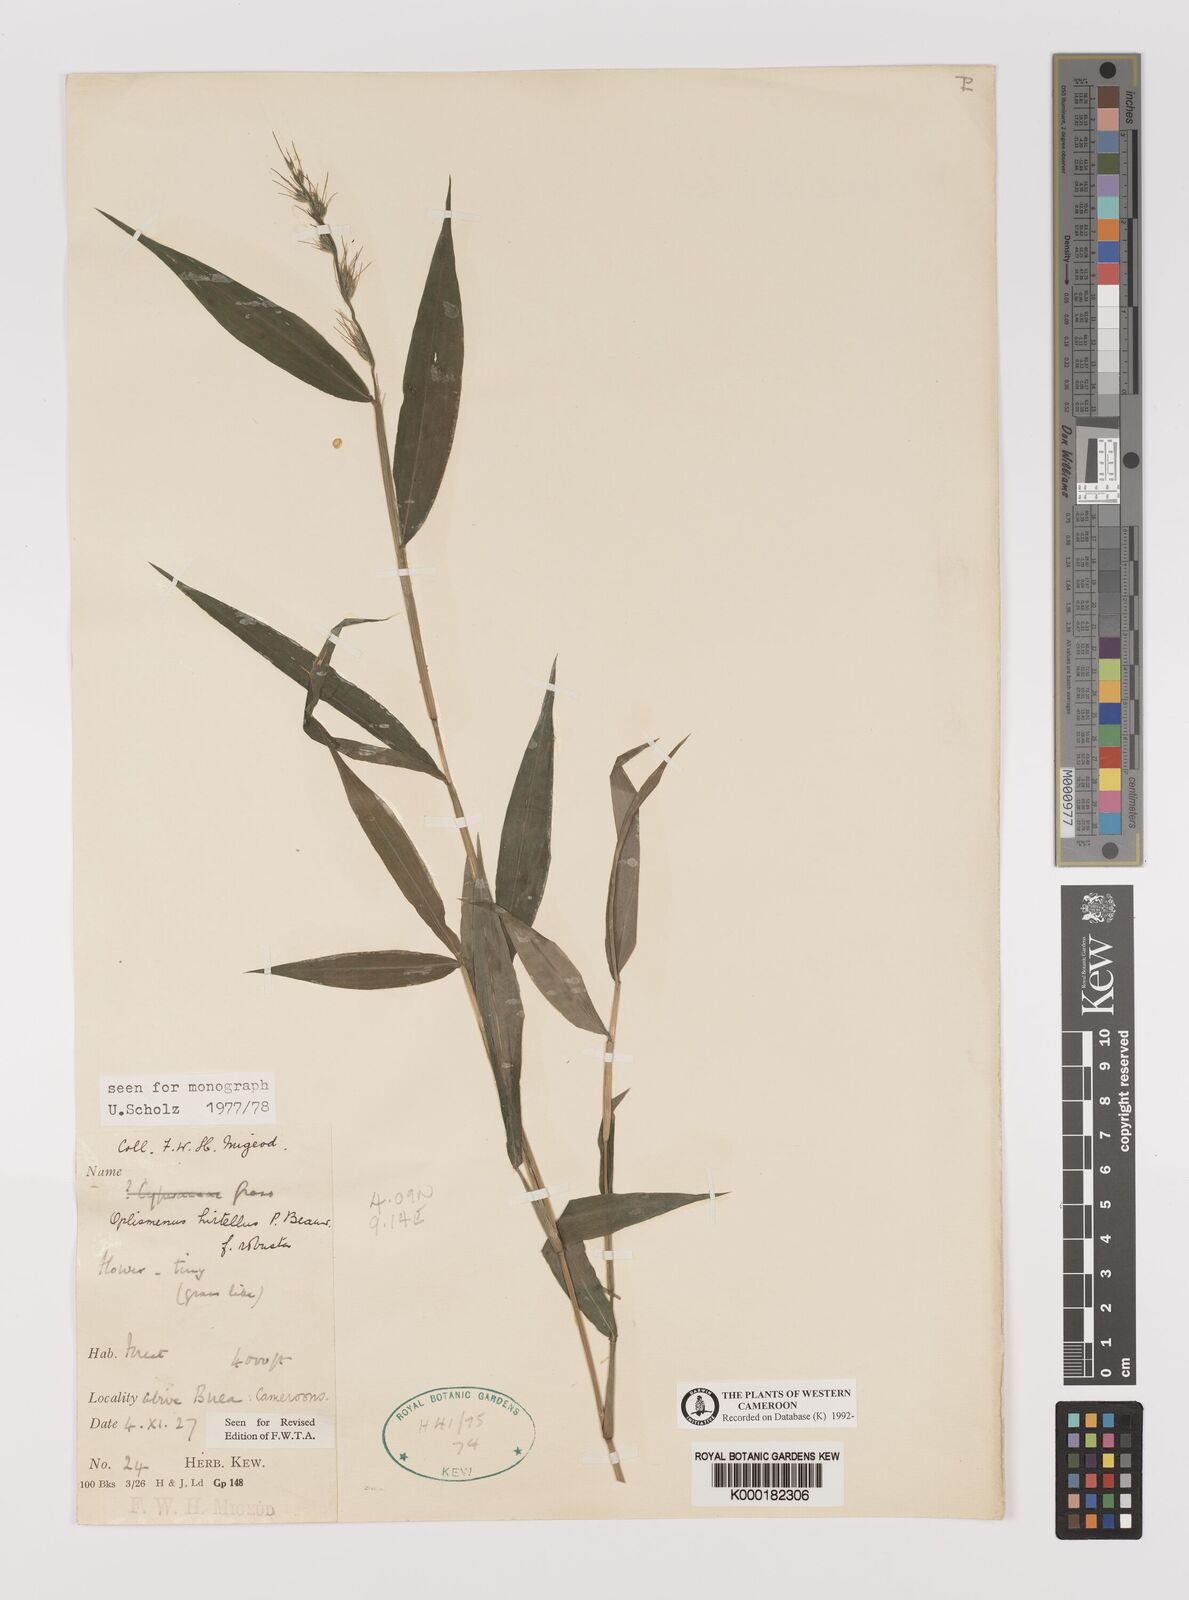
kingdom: Plantae
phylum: Tracheophyta
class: Liliopsida
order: Poales
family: Poaceae
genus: Oplismenus
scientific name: Oplismenus hirtellus
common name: Basketgrass
